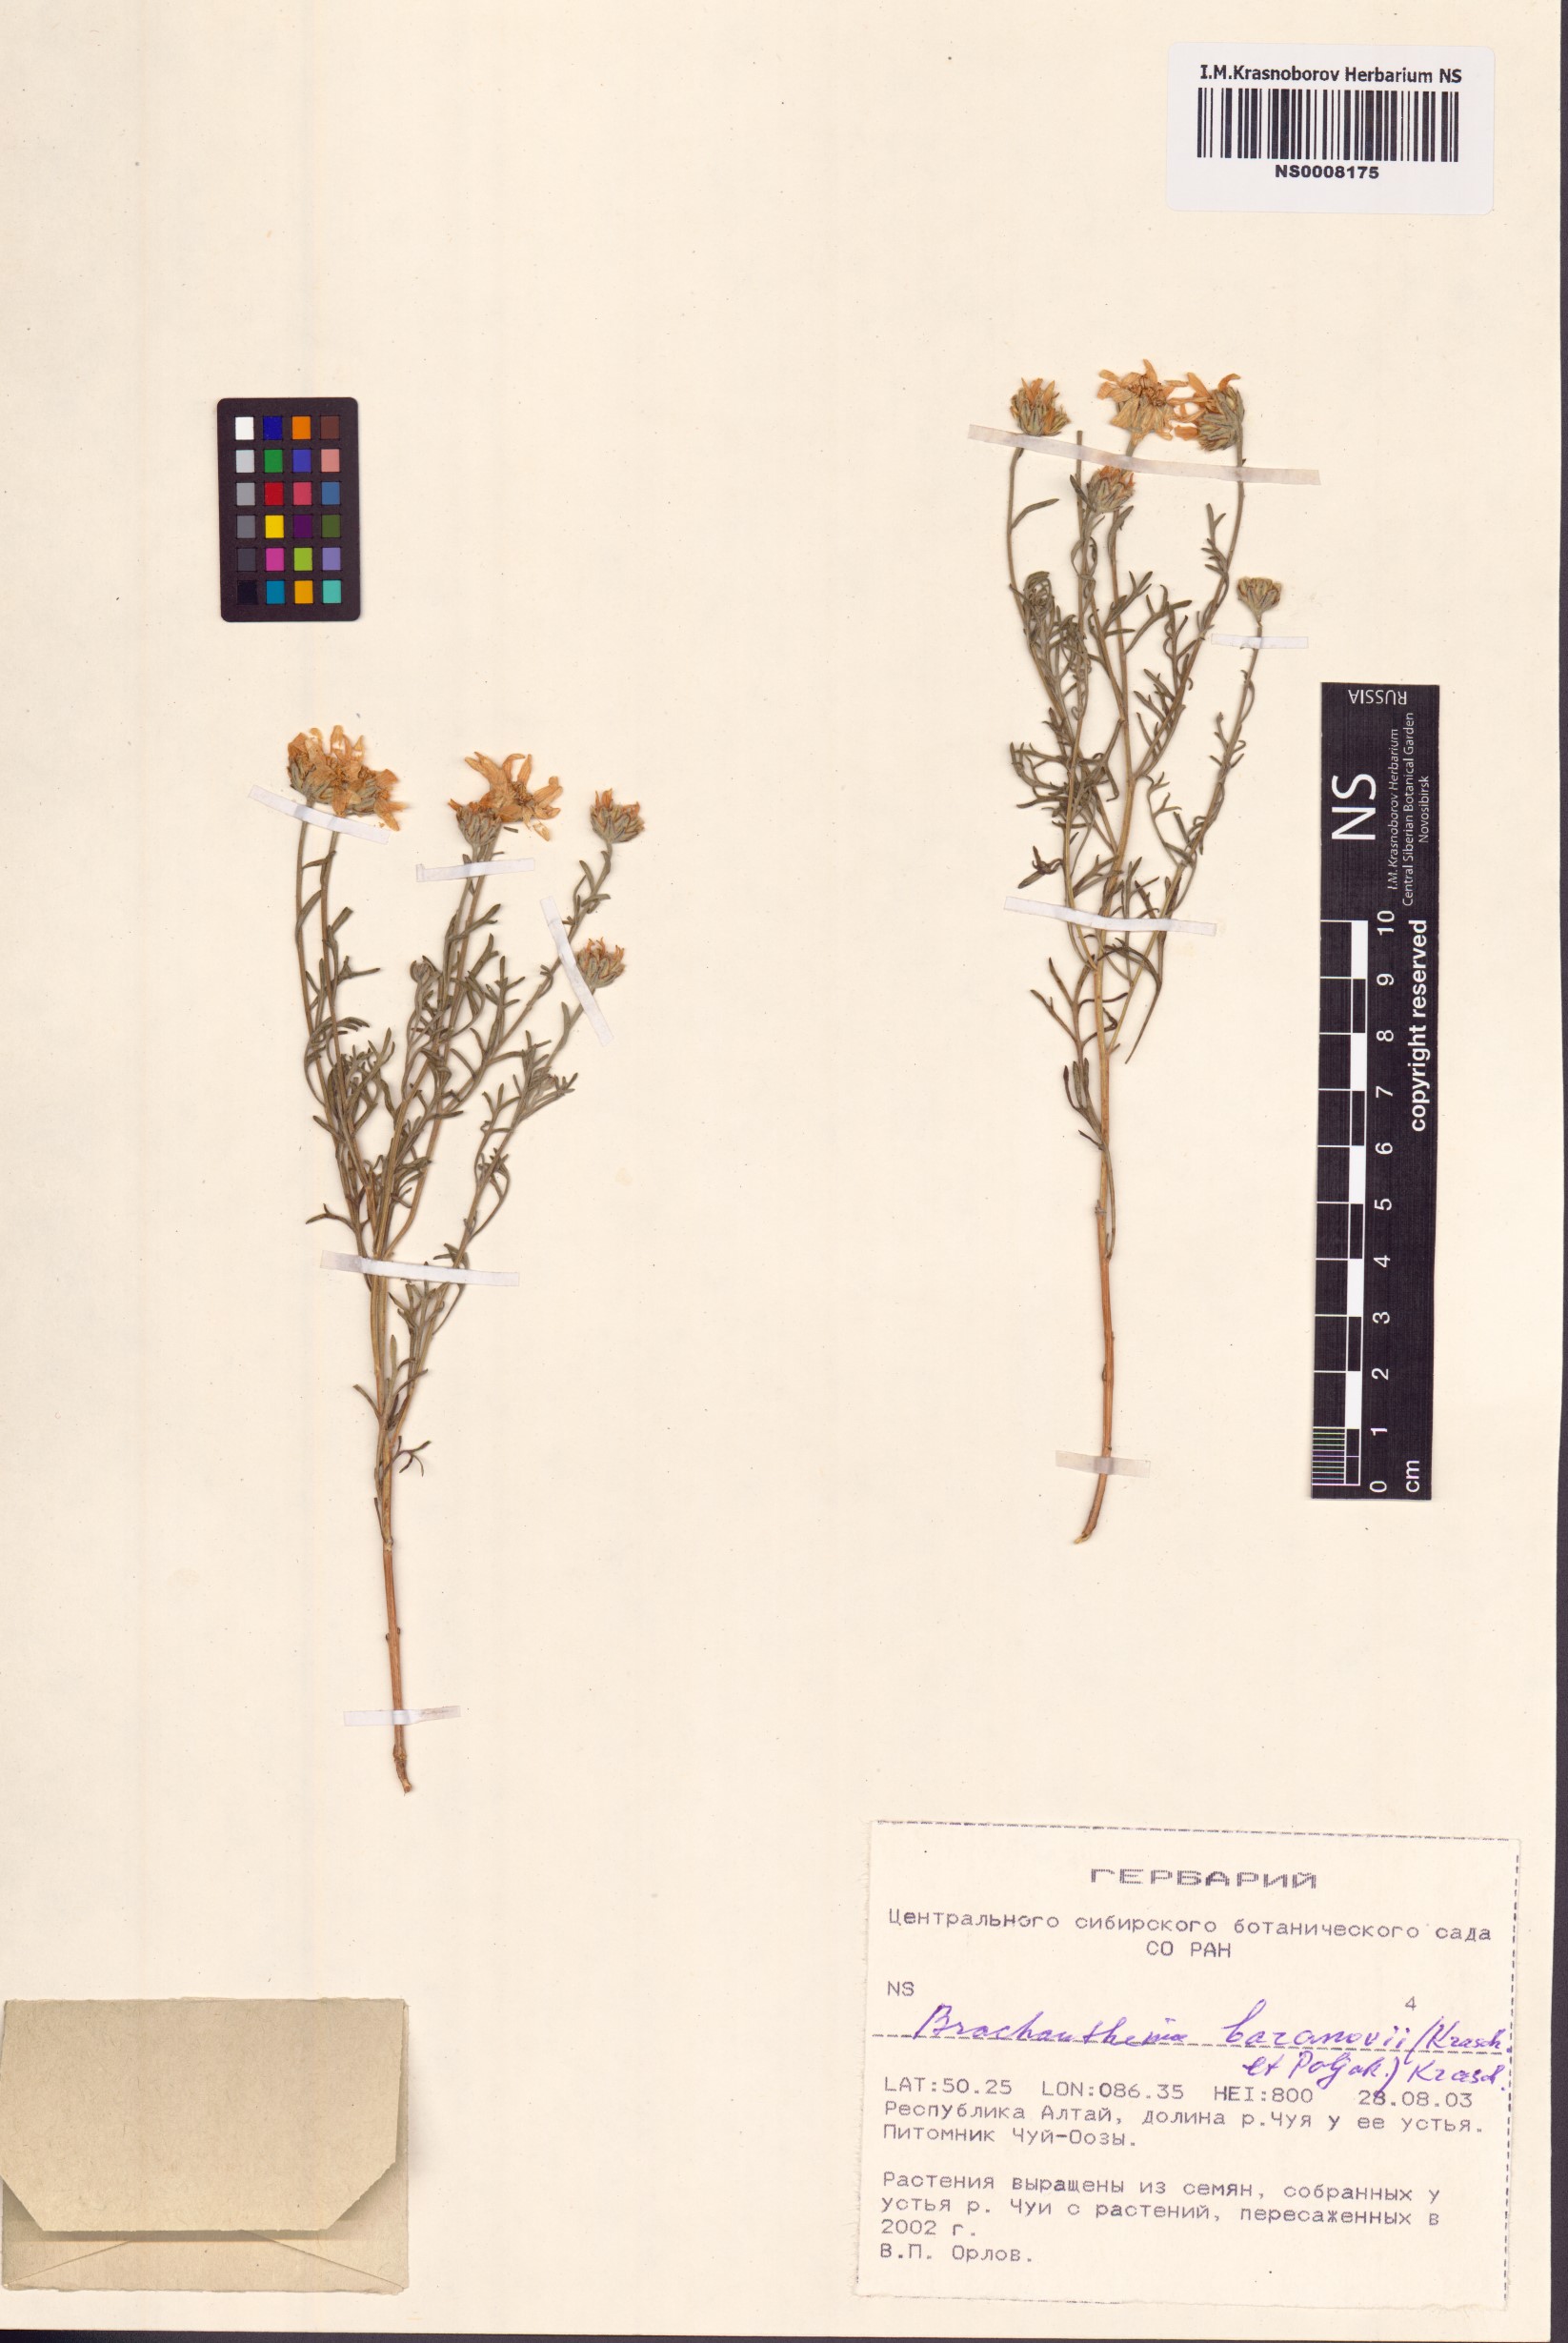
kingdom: Plantae
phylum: Tracheophyta
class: Magnoliopsida
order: Asterales
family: Asteraceae
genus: Brachanthemum
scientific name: Brachanthemum baranovii
